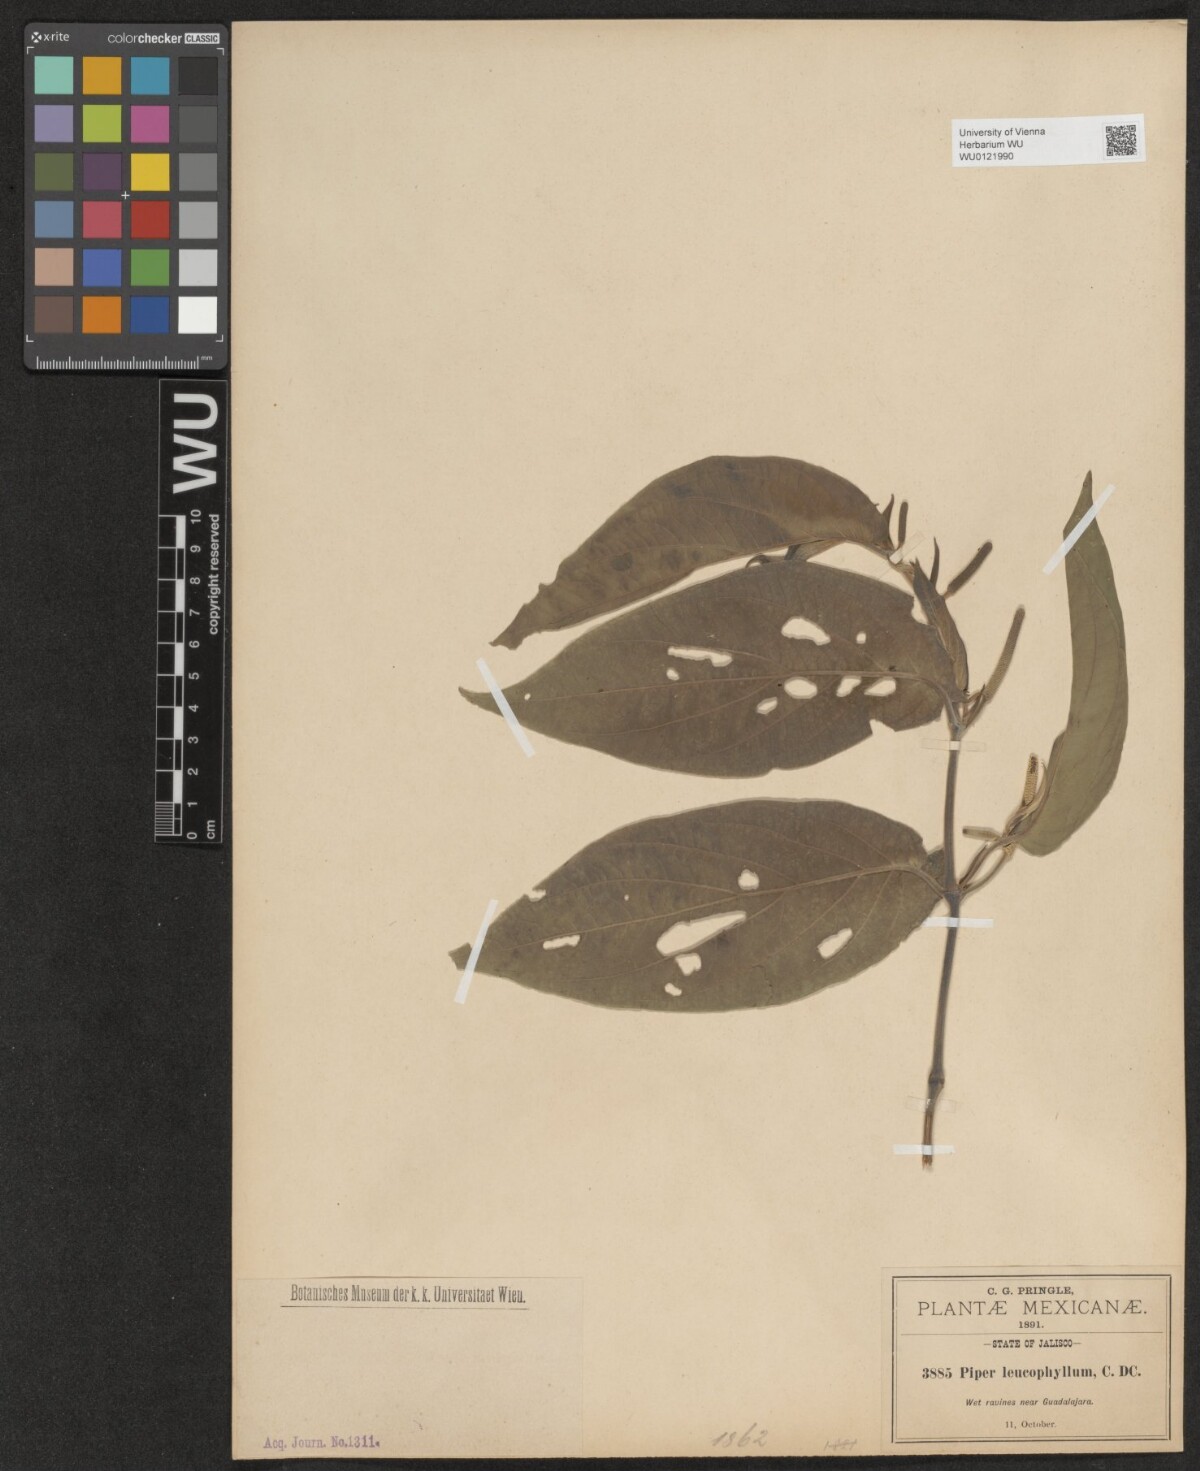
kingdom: Plantae
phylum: Tracheophyta
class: Magnoliopsida
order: Piperales
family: Piperaceae
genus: Piper
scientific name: Piper leucophyllum
